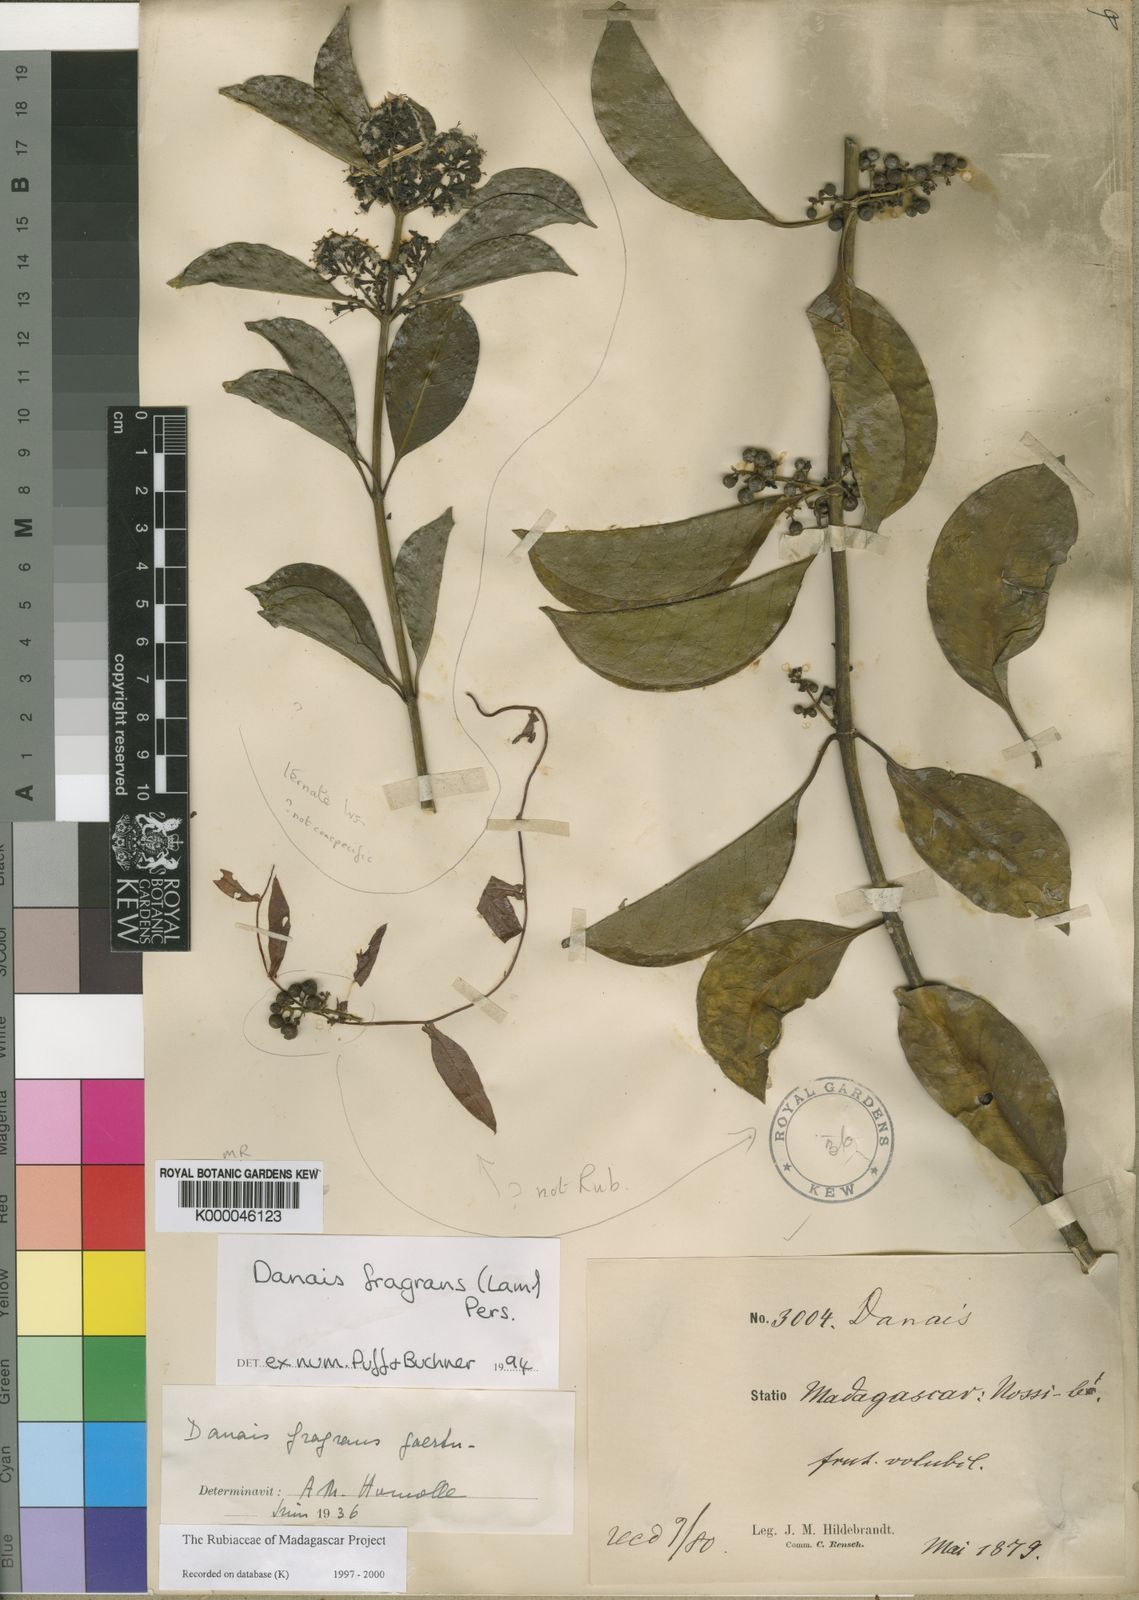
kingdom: Plantae
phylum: Tracheophyta
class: Magnoliopsida
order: Gentianales
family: Rubiaceae
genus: Danais
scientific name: Danais fragrans
